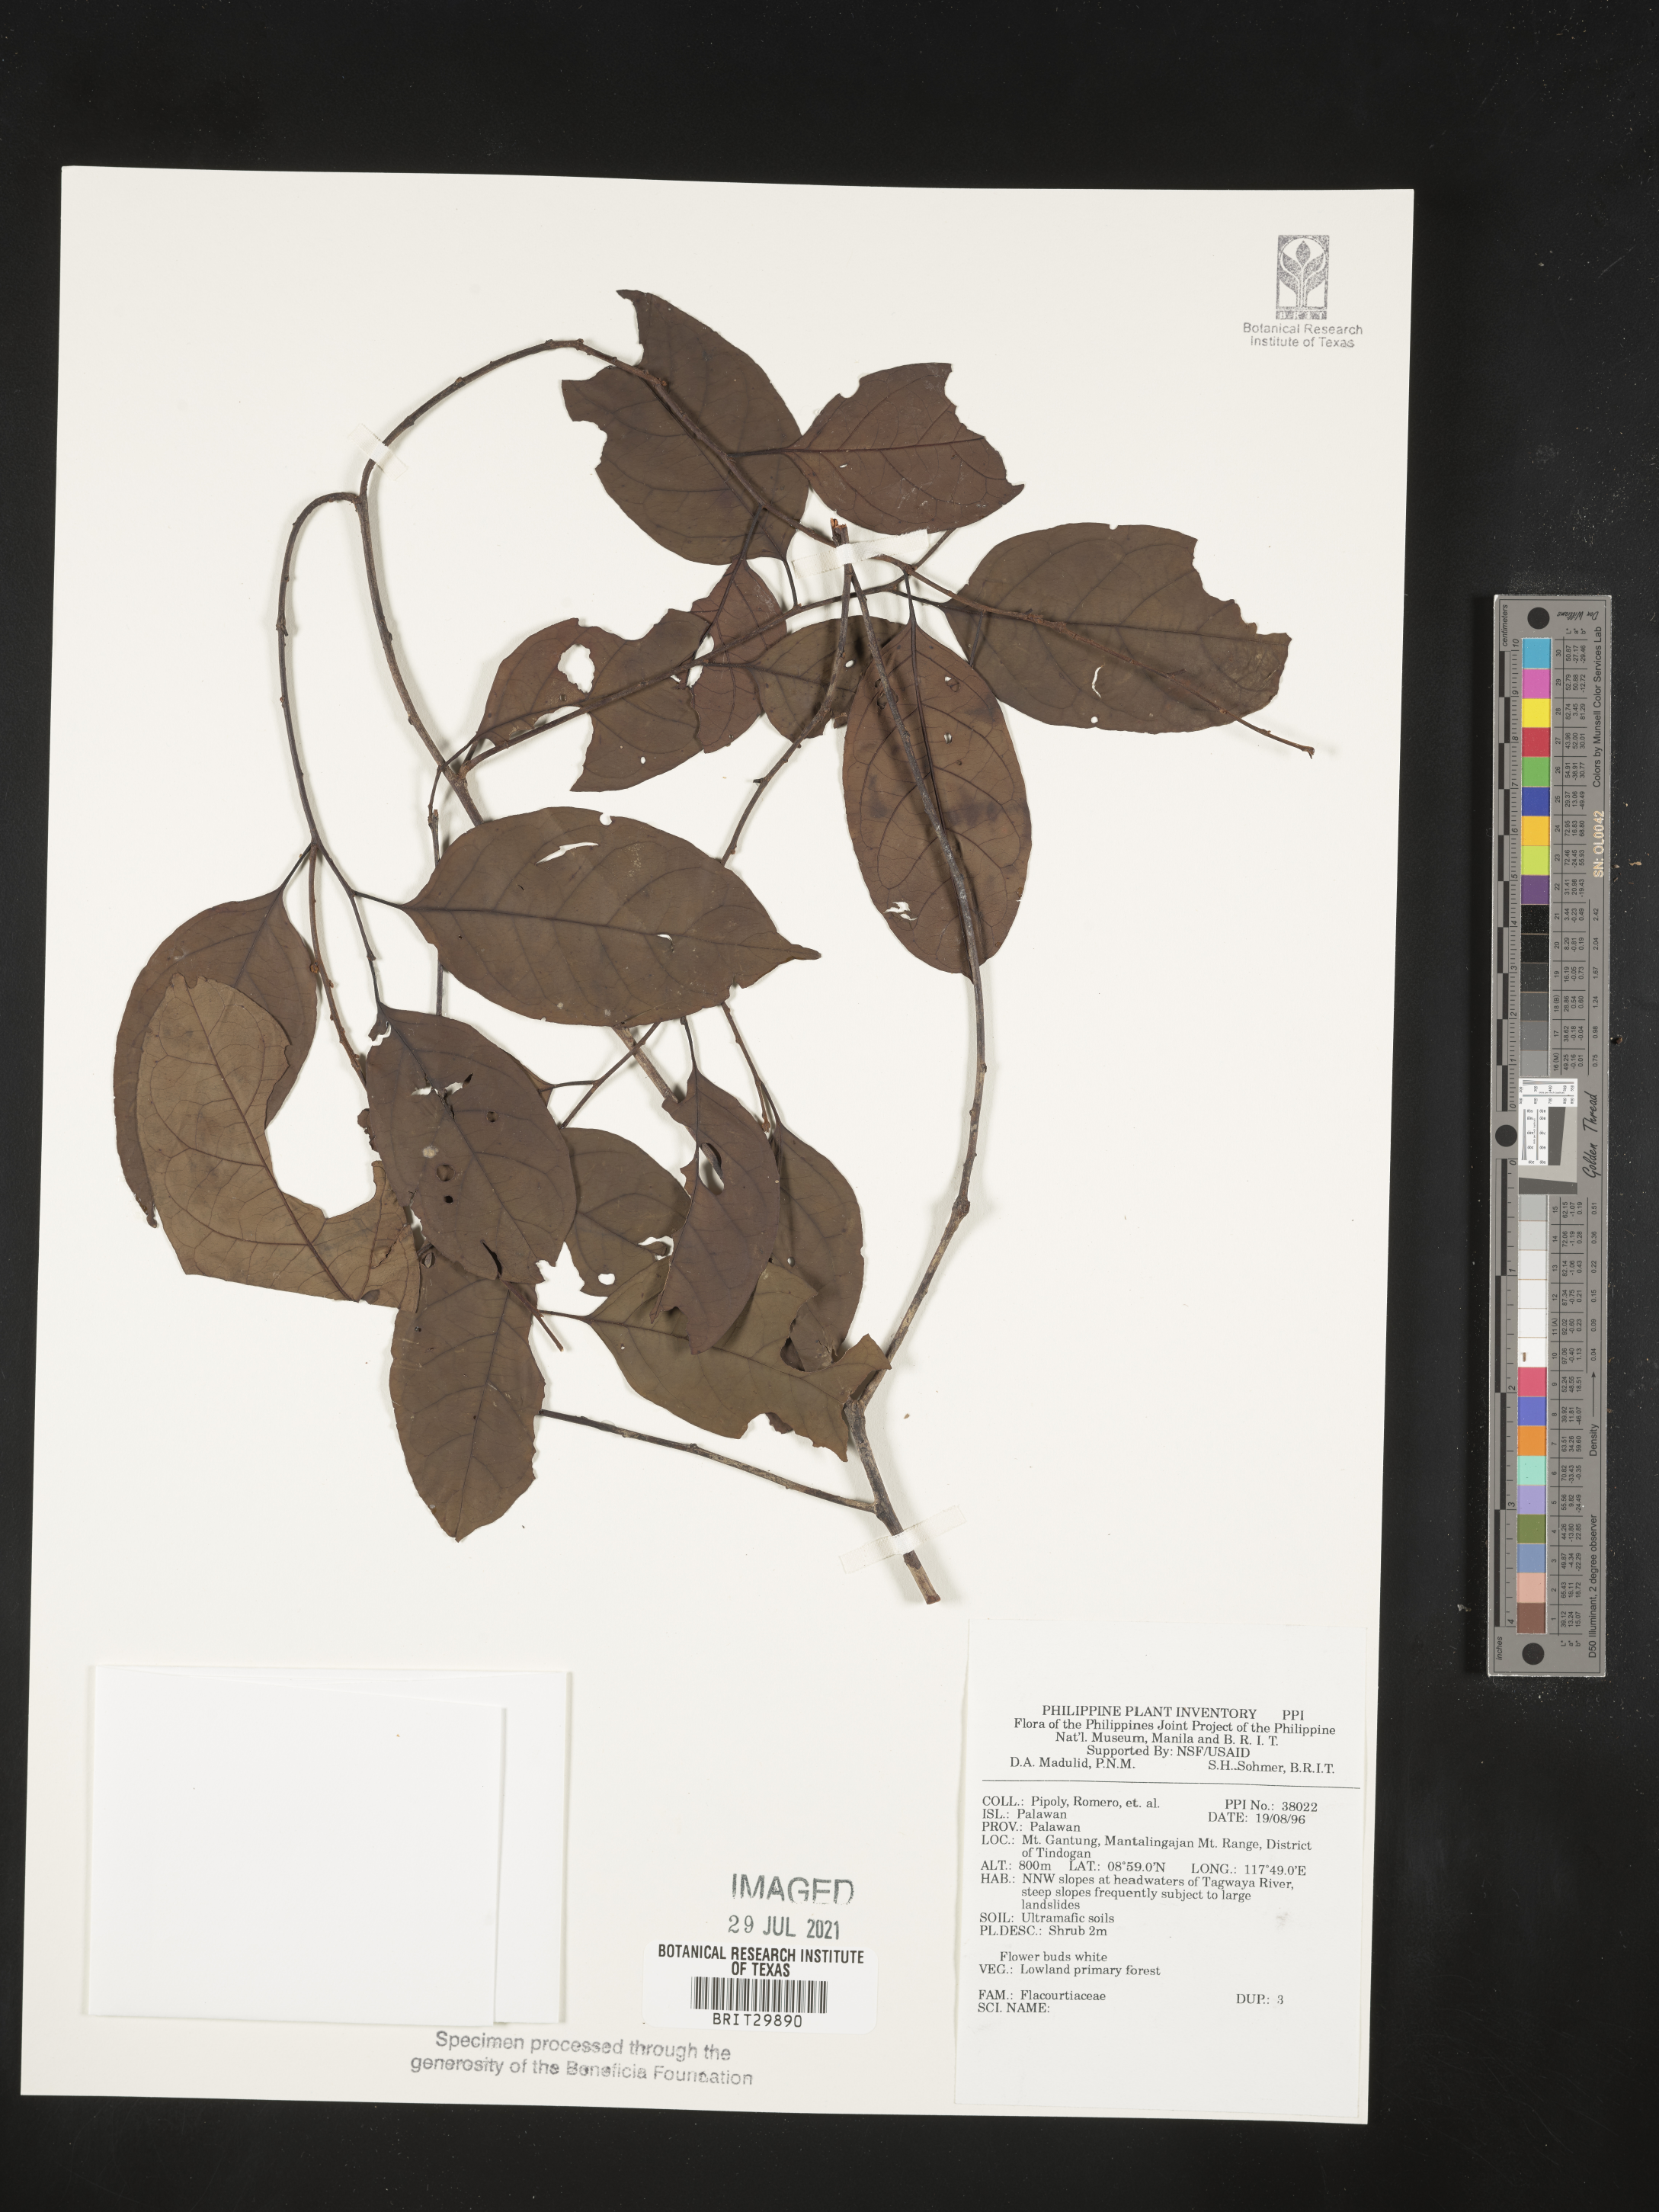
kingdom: Plantae
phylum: Tracheophyta
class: Magnoliopsida
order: Malpighiales
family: Flacourtiaceae
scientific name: Flacourtiaceae
